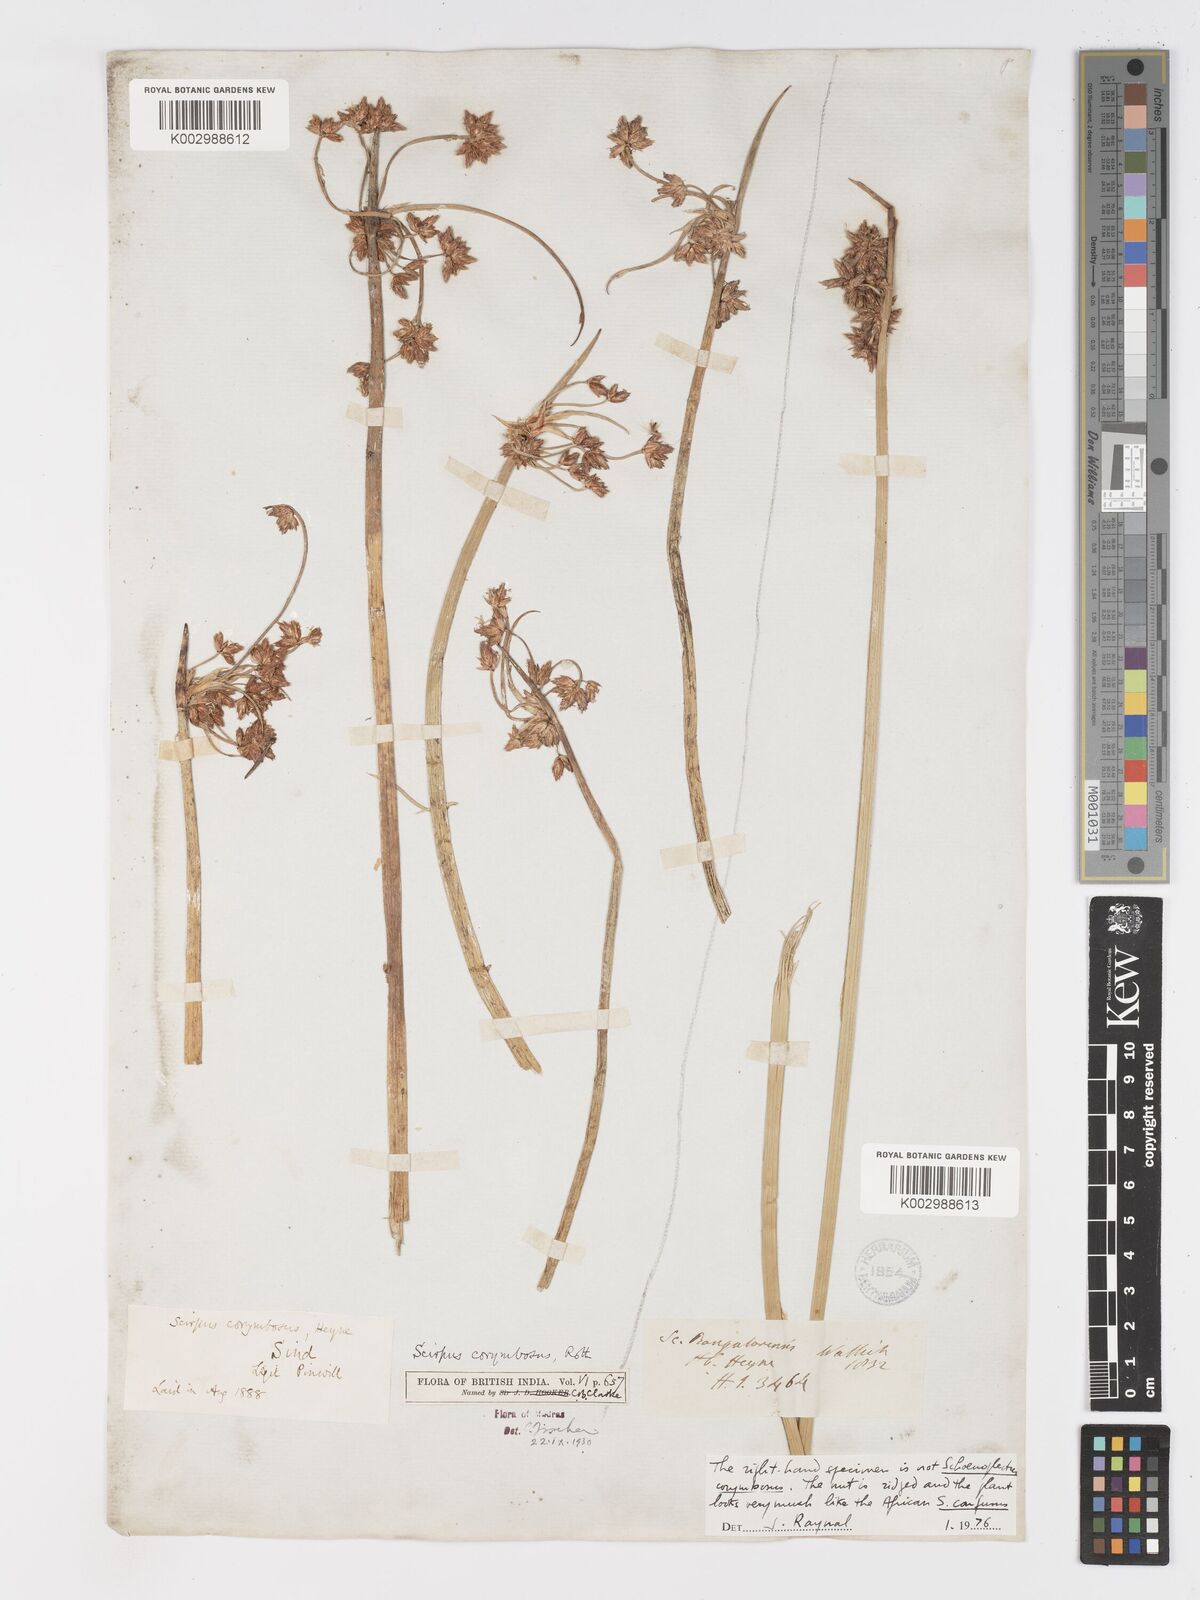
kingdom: Plantae
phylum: Tracheophyta
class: Liliopsida
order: Poales
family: Cyperaceae
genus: Schoenoplectiella
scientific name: Schoenoplectiella corymbosa
